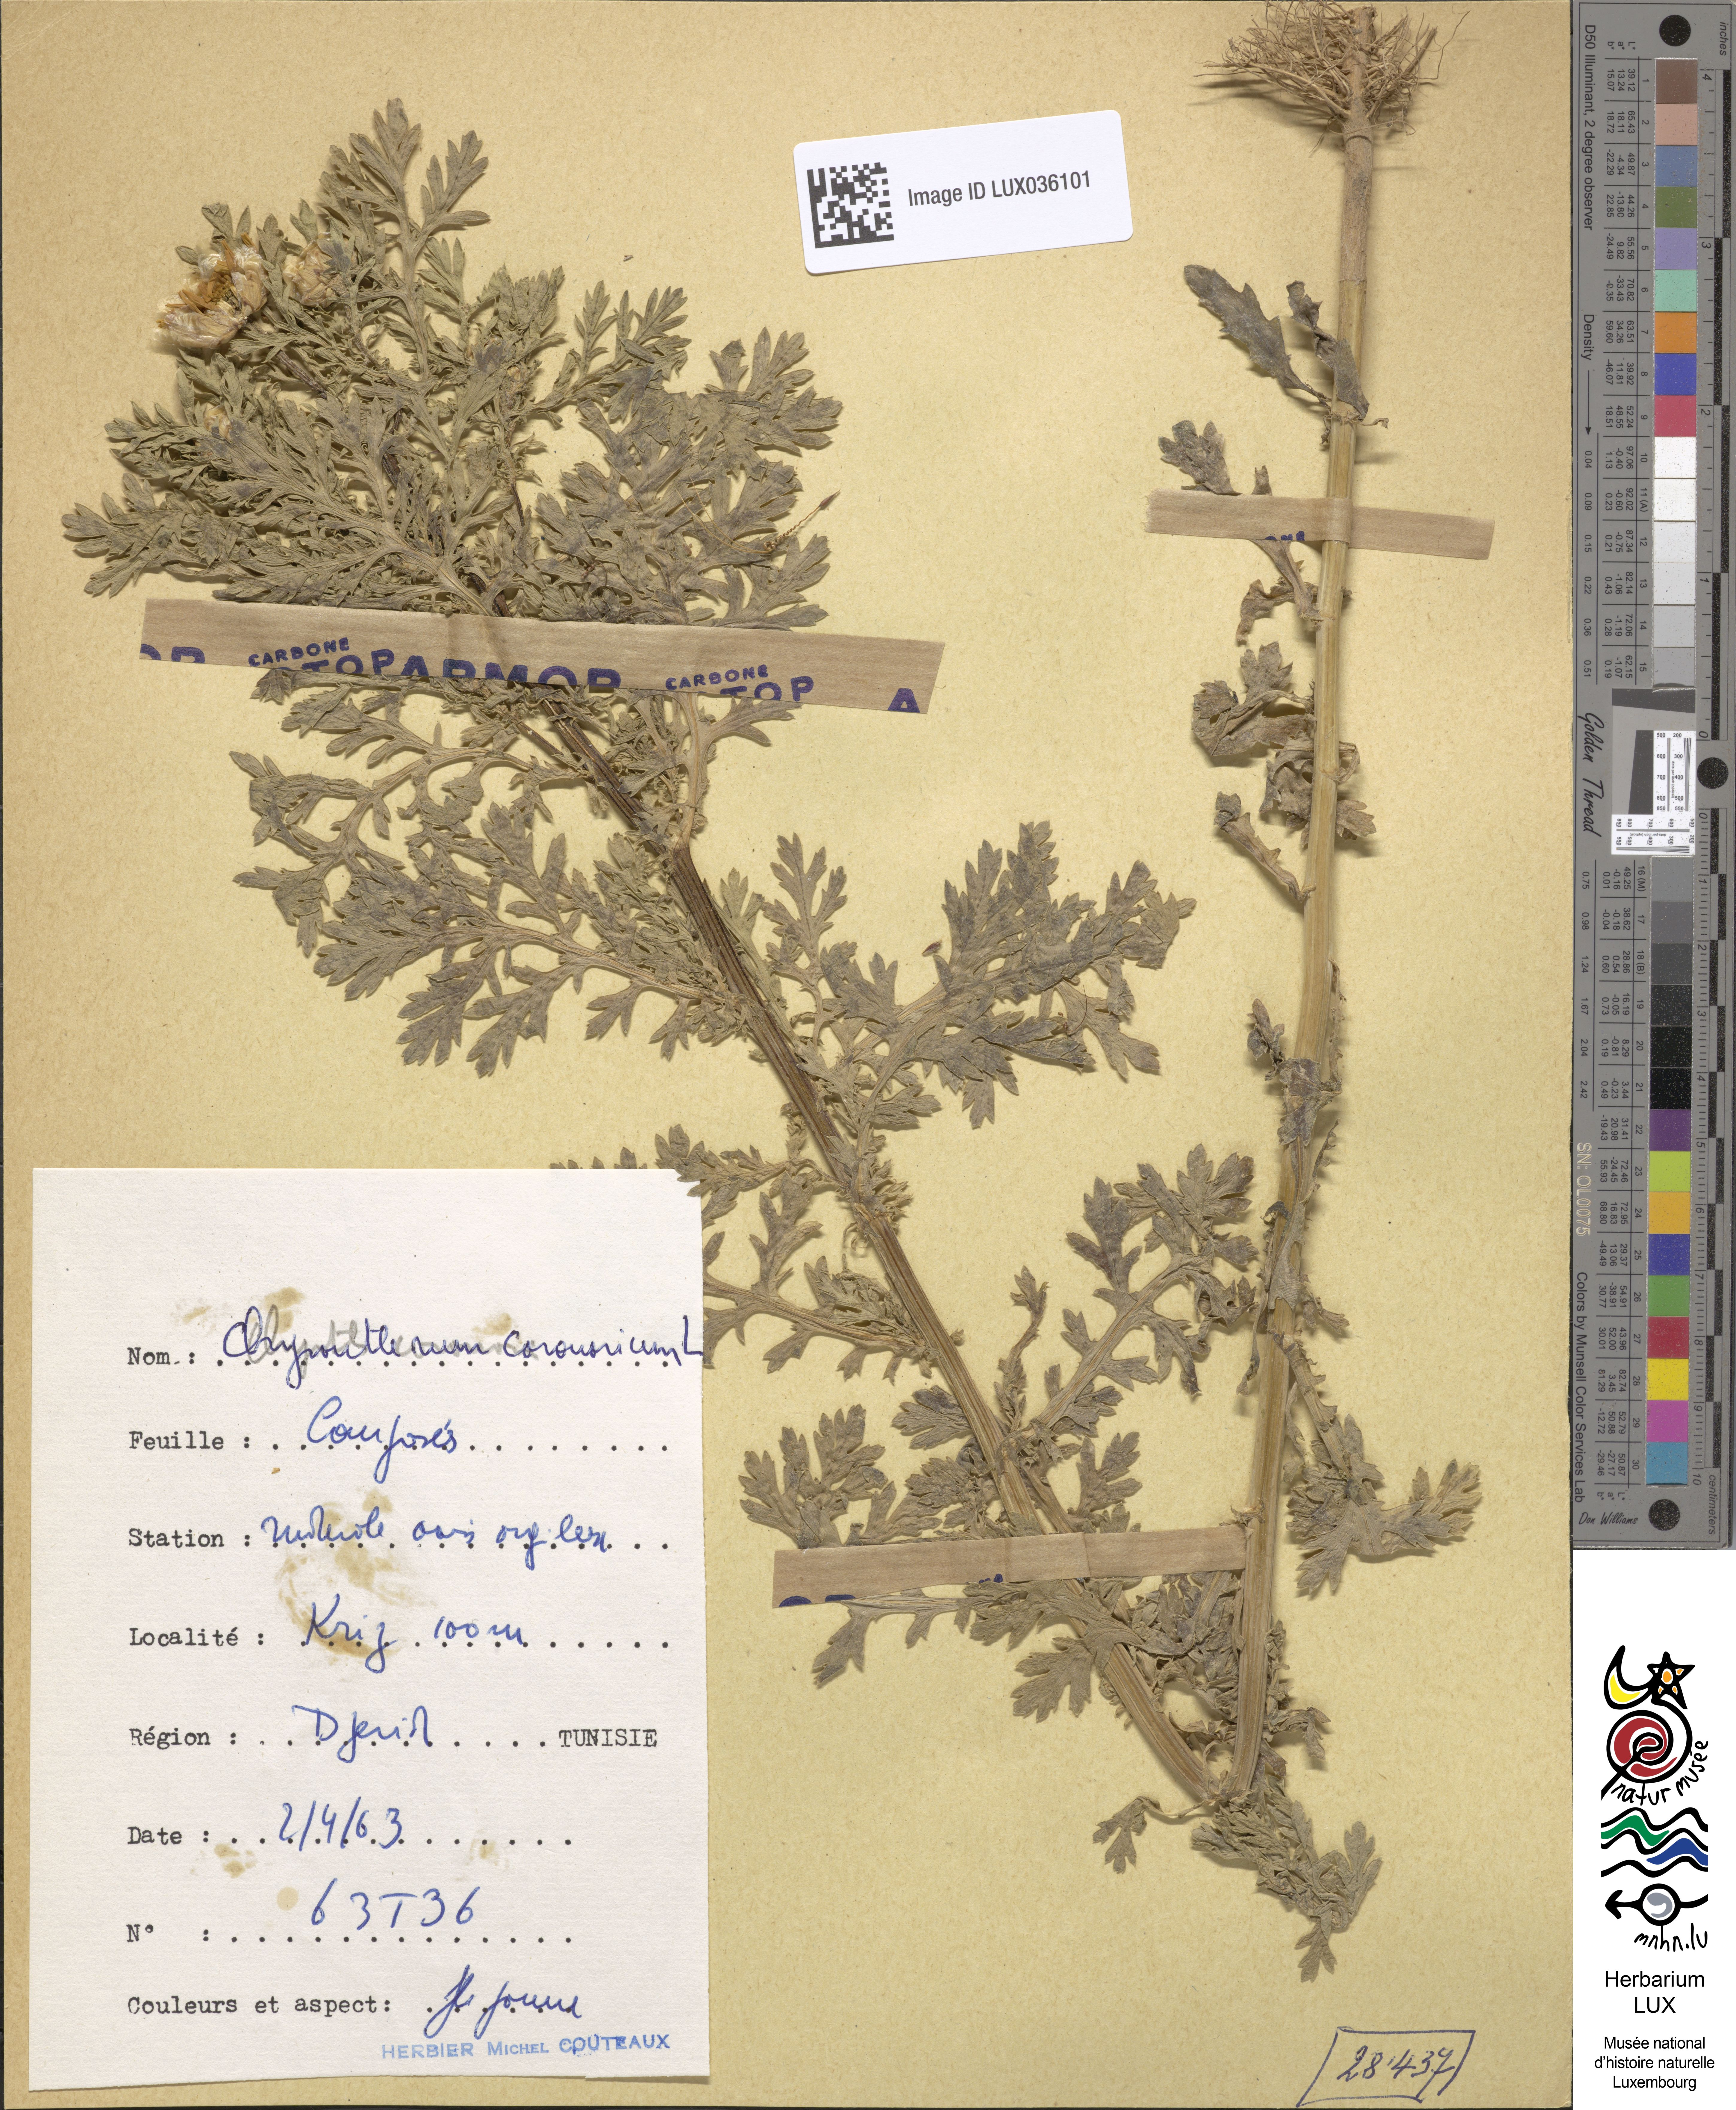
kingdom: Plantae
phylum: Tracheophyta
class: Magnoliopsida
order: Asterales
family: Asteraceae
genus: Glebionis
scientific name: Glebionis coronaria
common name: Crowndaisy
